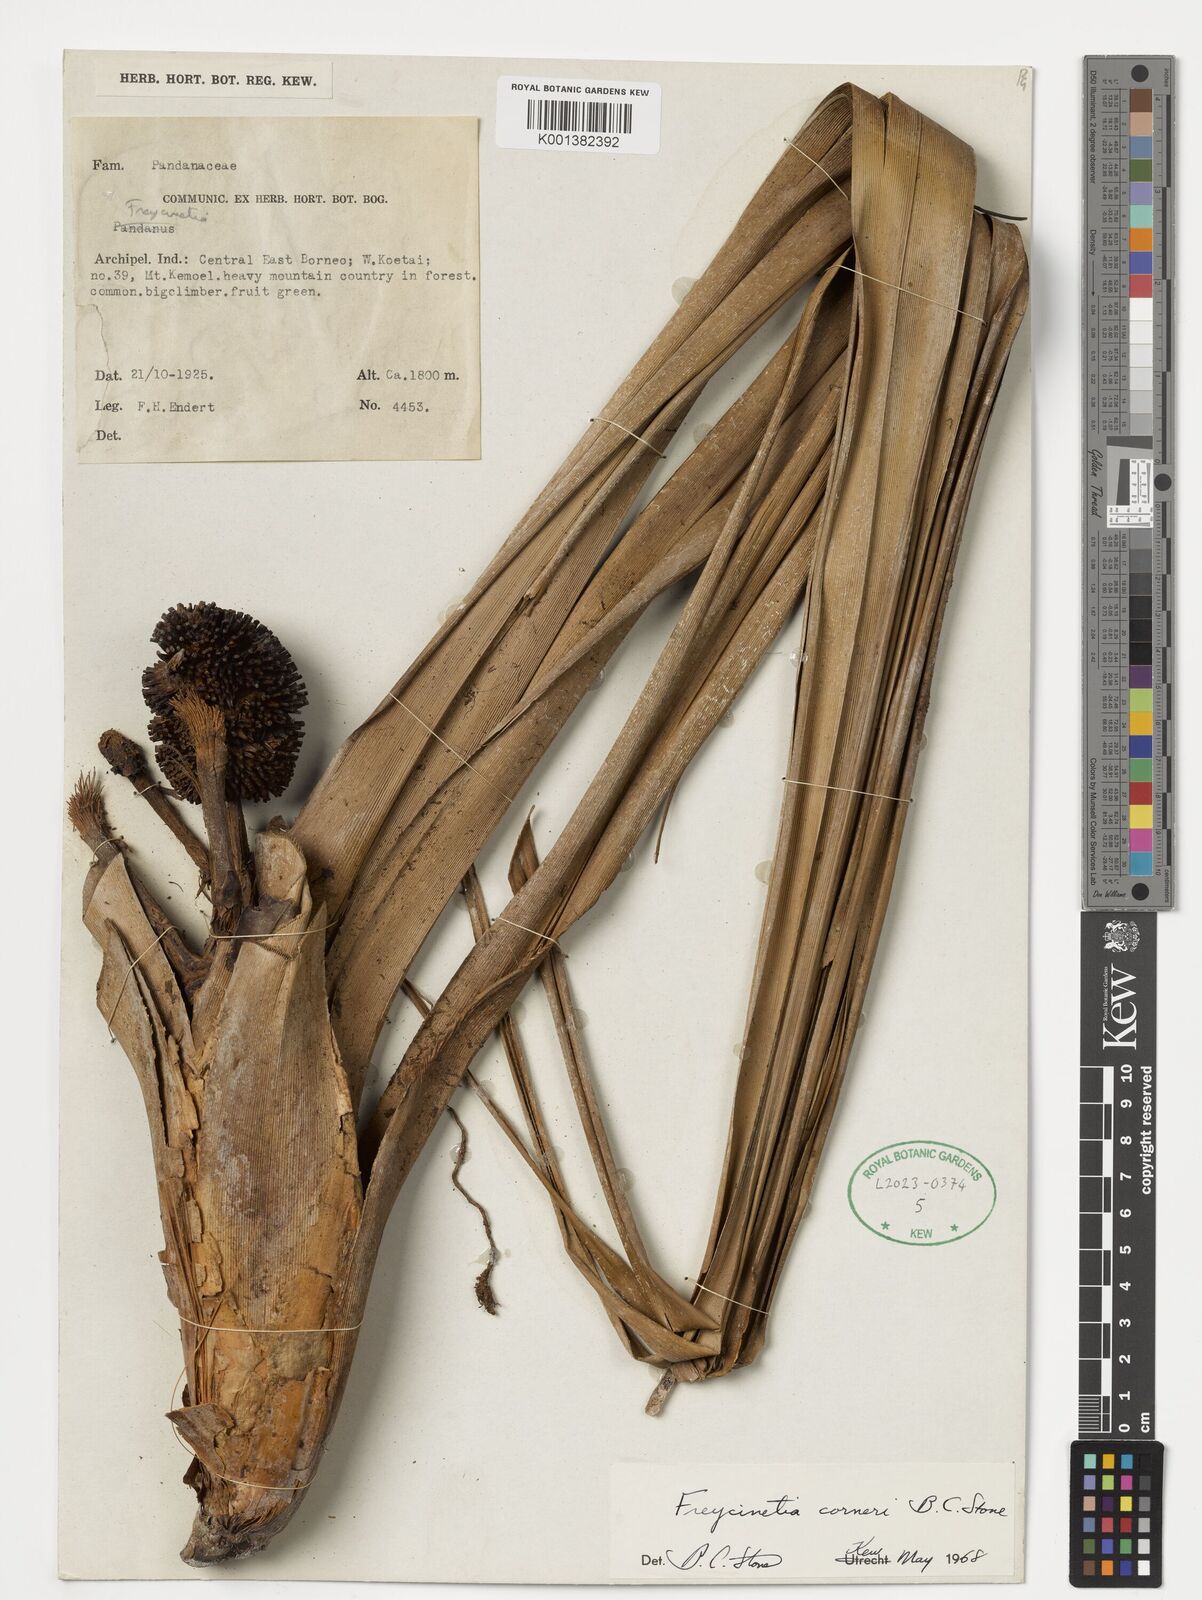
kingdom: Plantae
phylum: Tracheophyta
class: Liliopsida
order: Pandanales
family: Pandanaceae
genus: Freycinetia
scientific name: Freycinetia corneri
